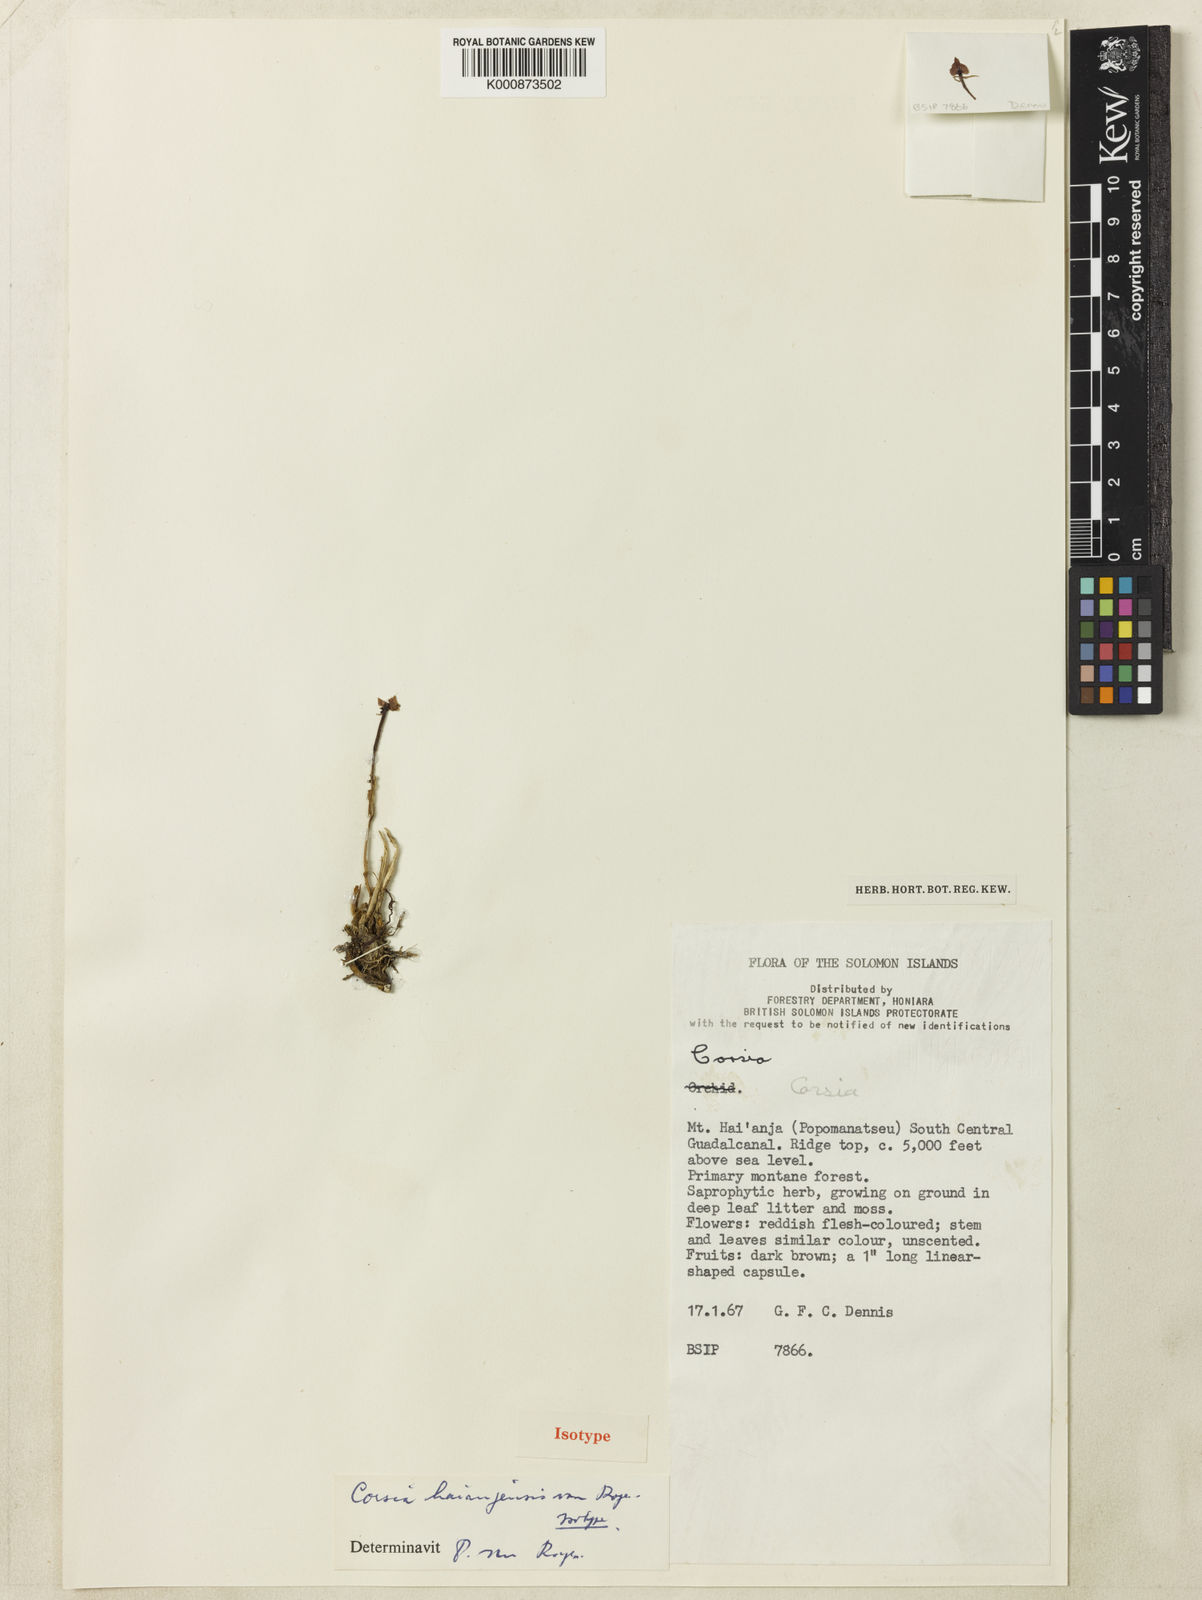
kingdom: Plantae
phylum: Tracheophyta
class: Liliopsida
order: Liliales
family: Corsiaceae
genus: Corsia
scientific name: Corsia haianjensis
